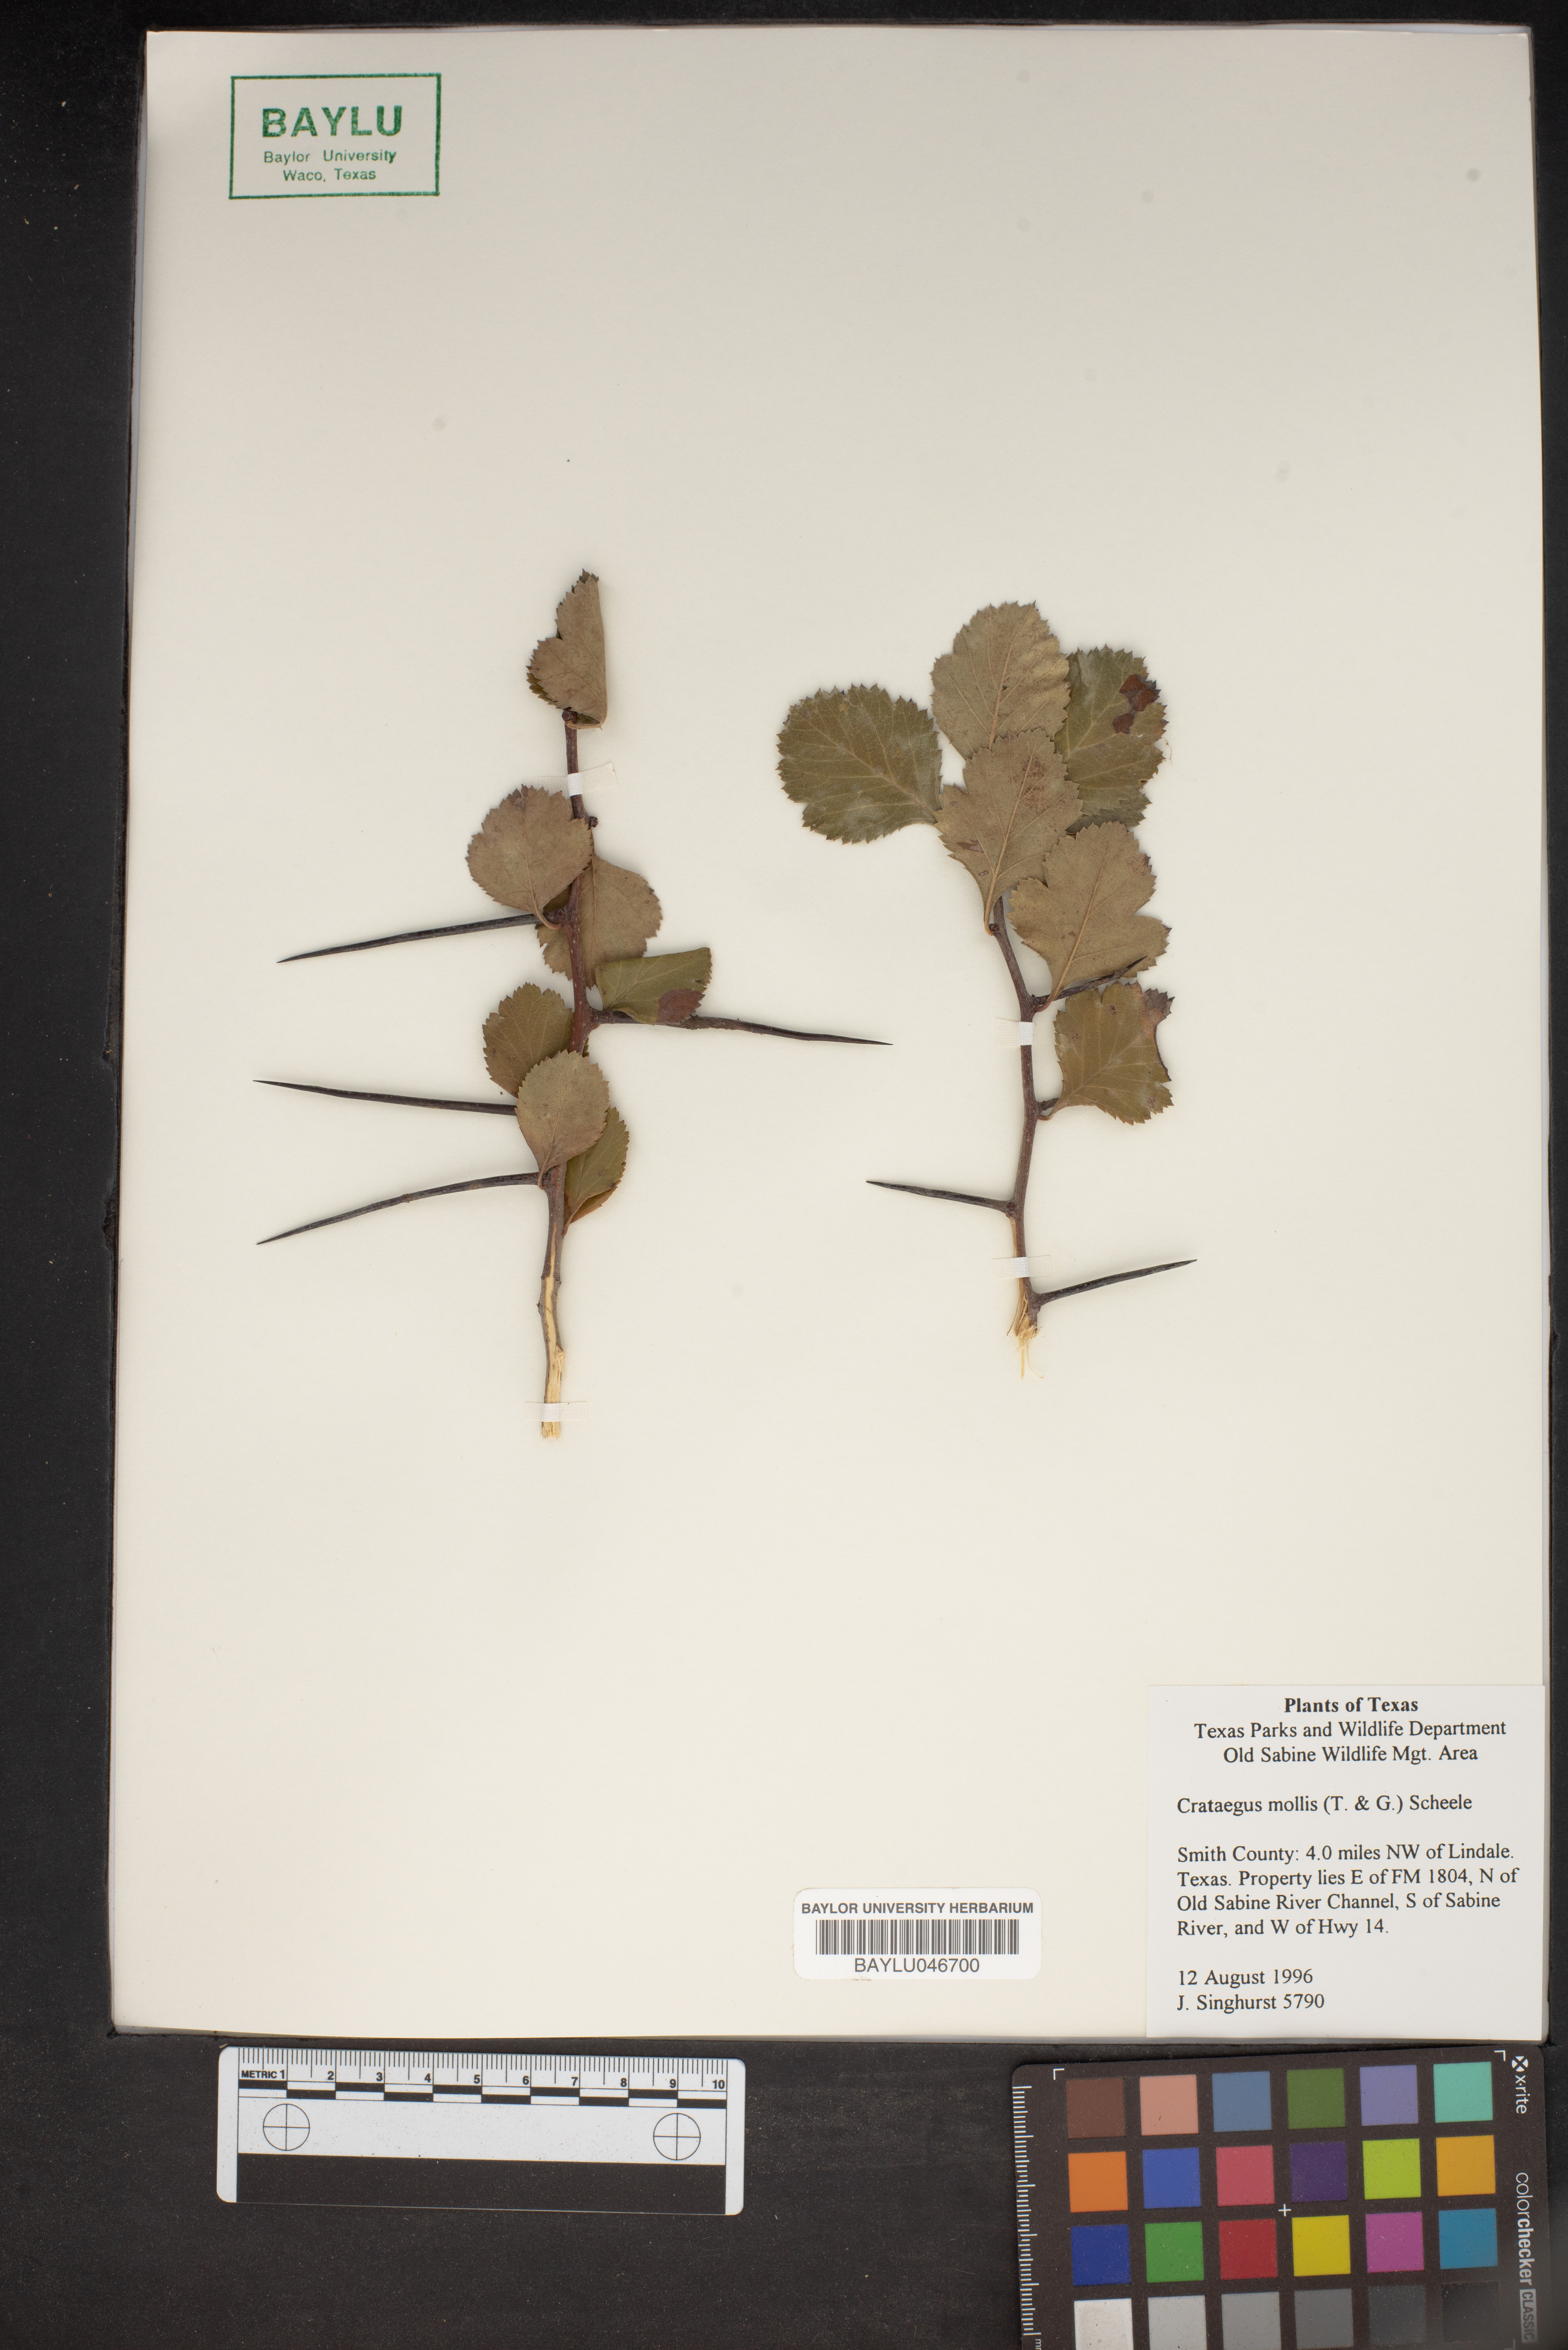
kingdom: Plantae
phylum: Tracheophyta
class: Magnoliopsida
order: Rosales
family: Rosaceae
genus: Crataegus
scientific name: Crataegus mollis
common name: Downy hawthorn
